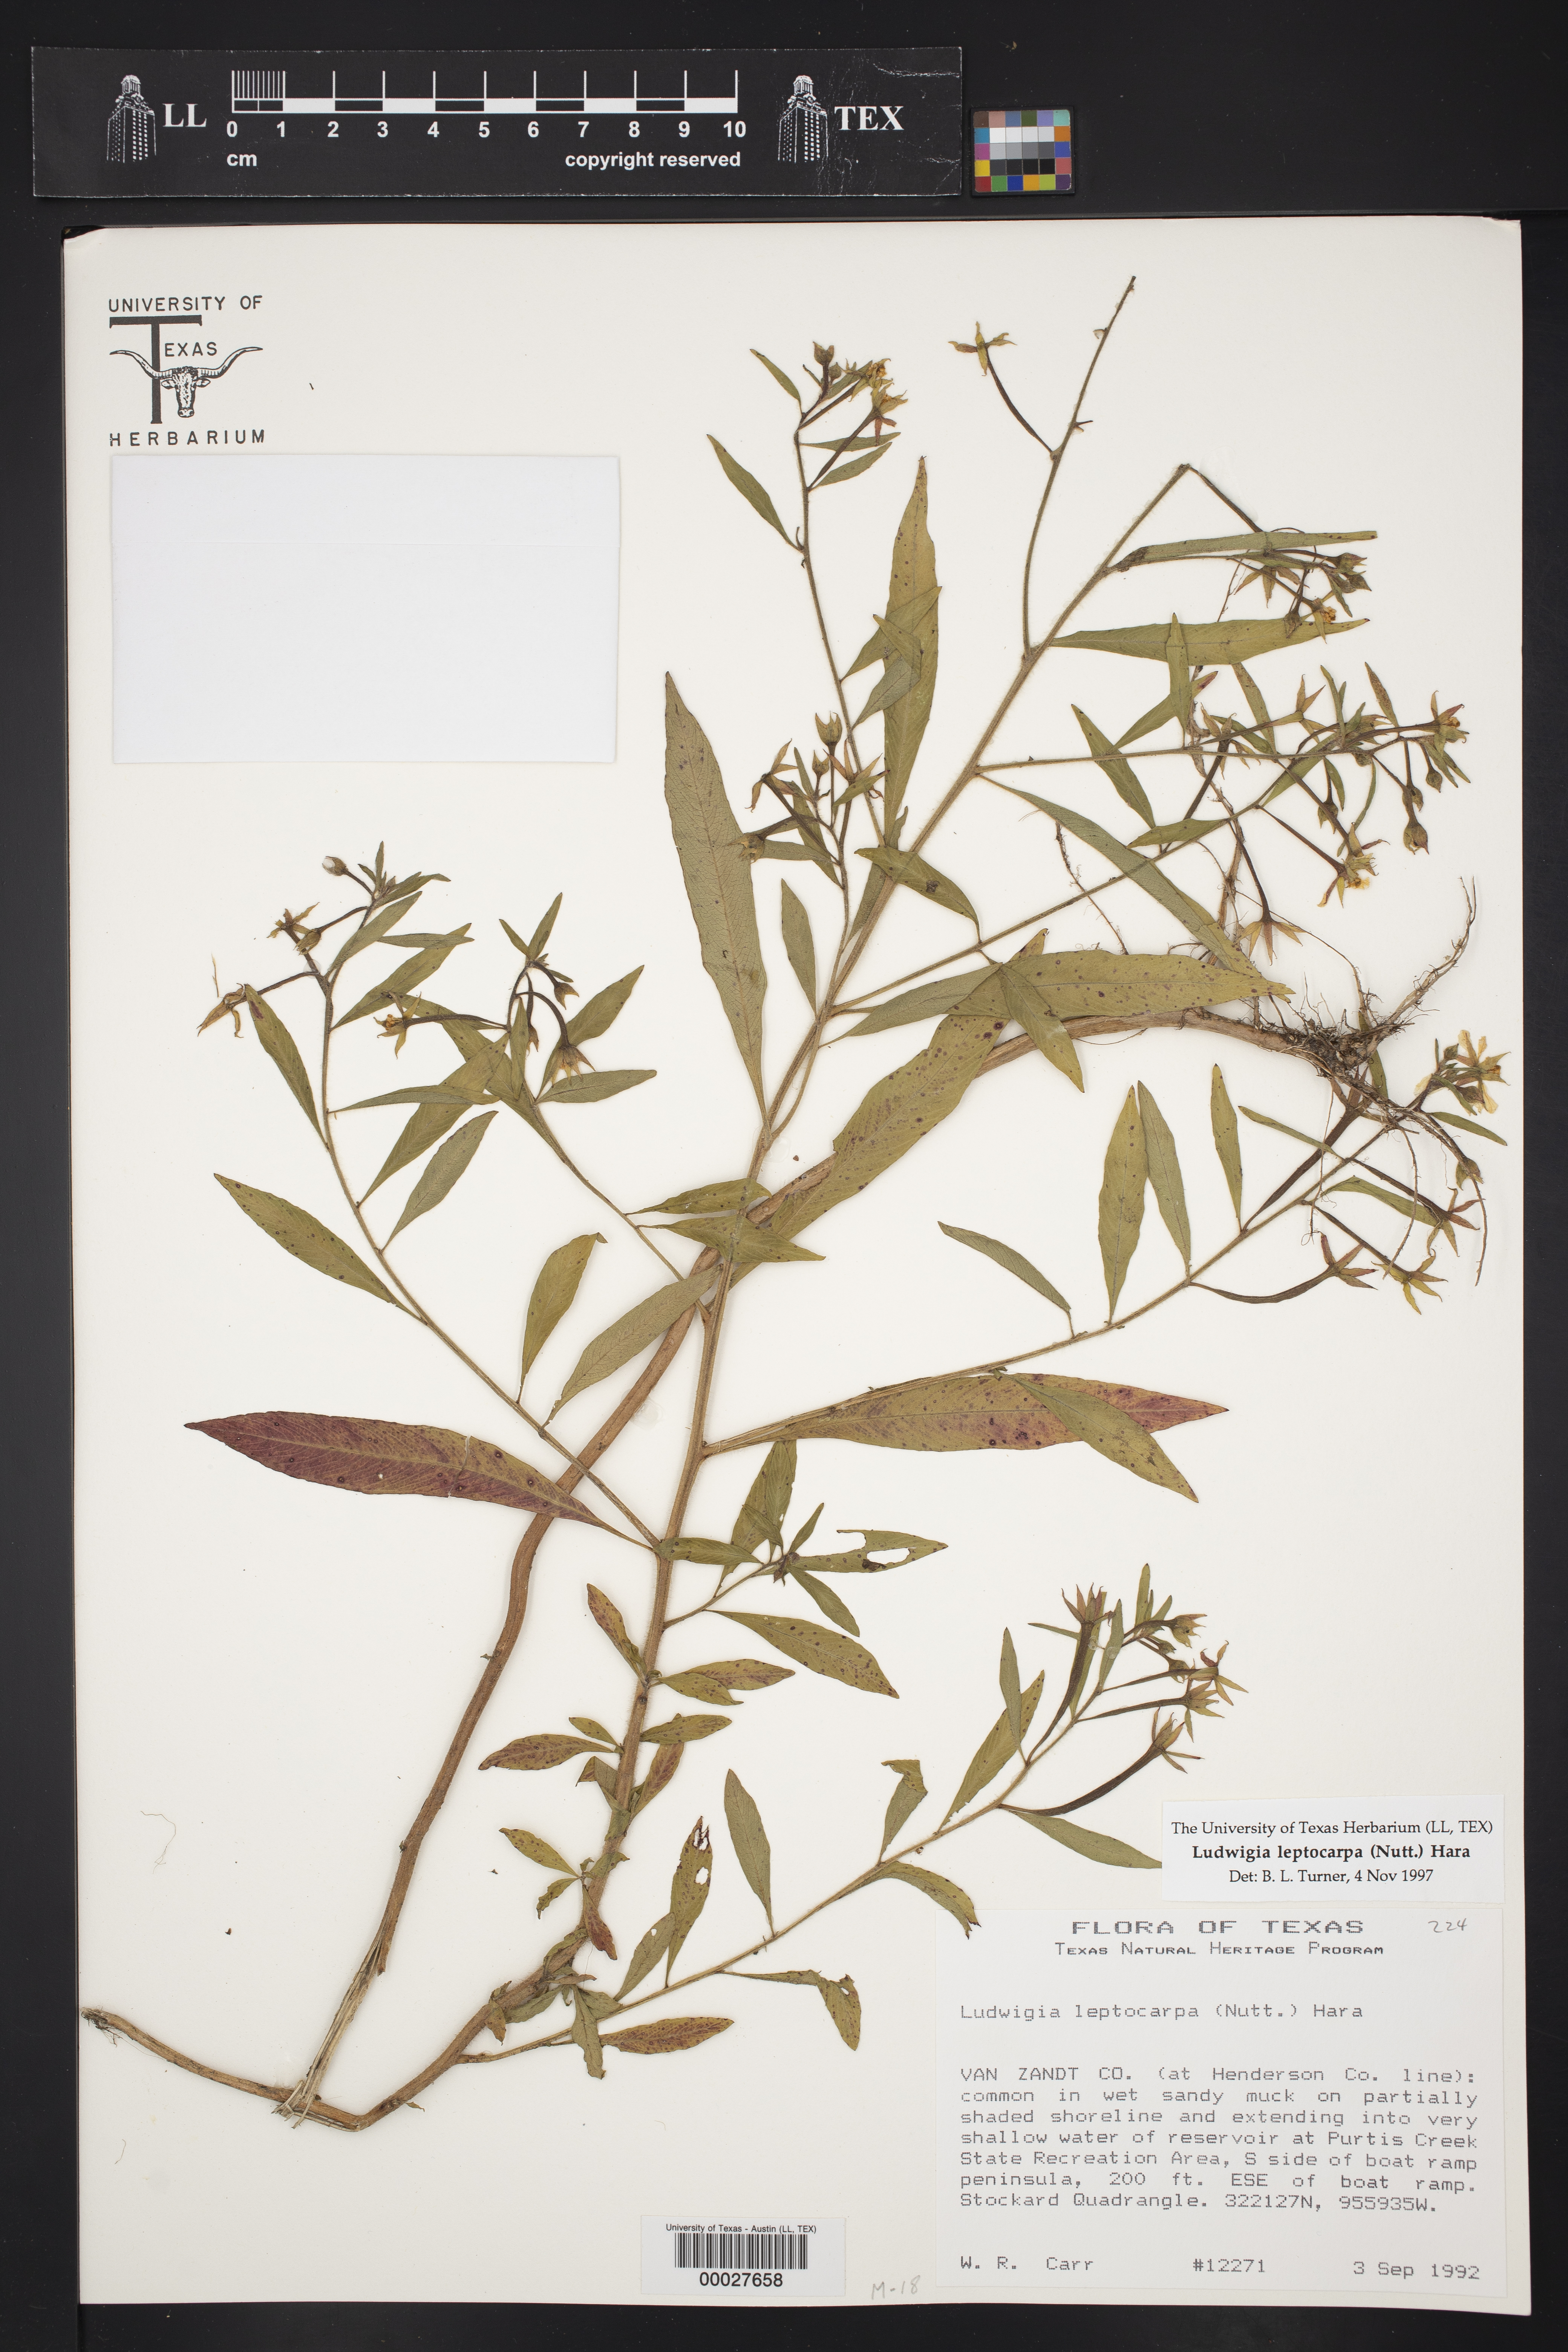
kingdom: Plantae
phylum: Tracheophyta
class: Magnoliopsida
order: Myrtales
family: Onagraceae
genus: Ludwigia
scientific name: Ludwigia leptocarpa
